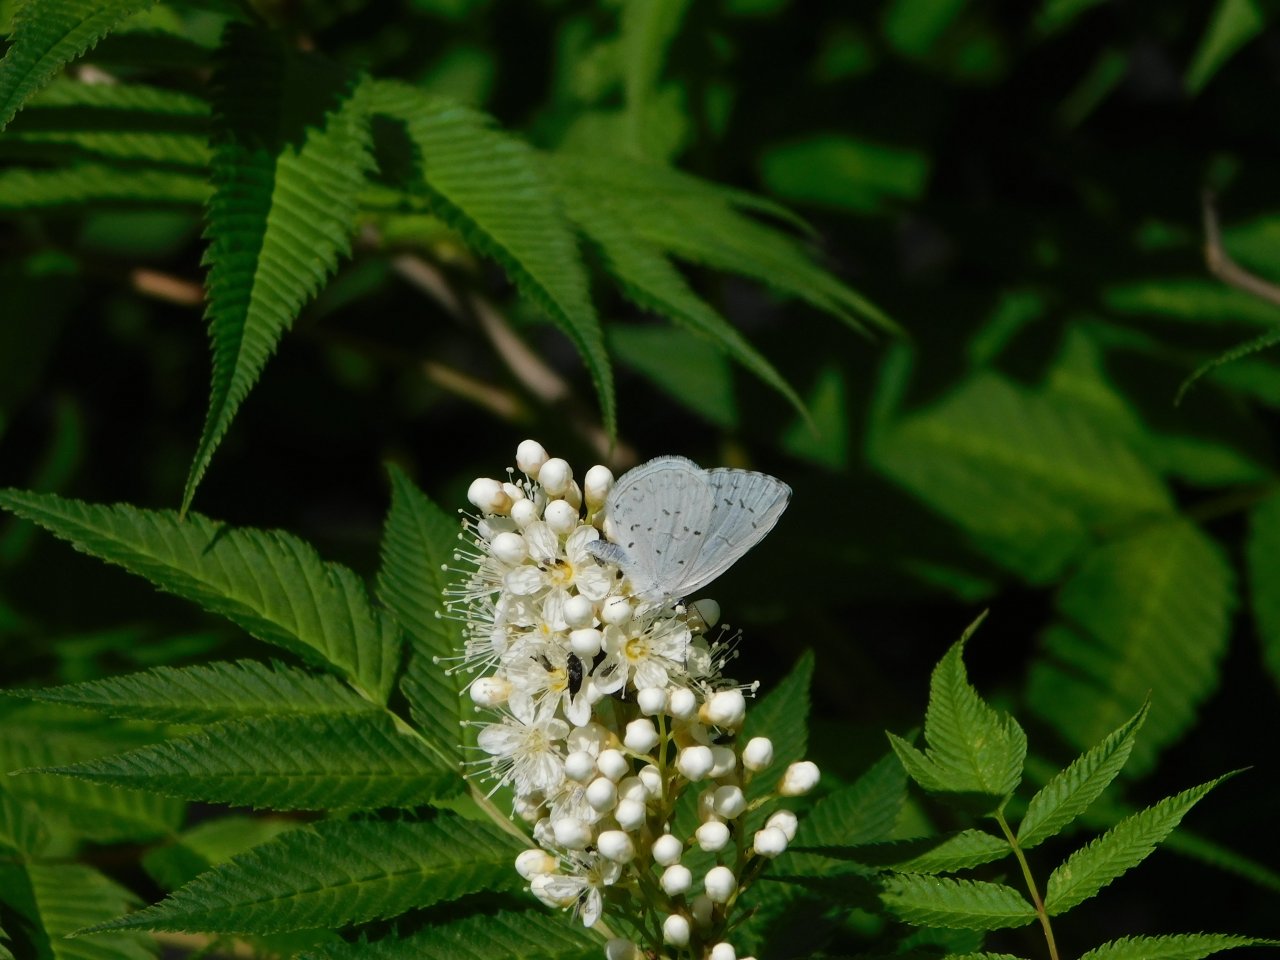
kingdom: Animalia
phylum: Arthropoda
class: Insecta
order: Lepidoptera
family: Lycaenidae
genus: Cyaniris
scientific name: Cyaniris neglecta
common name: Summer Azure
